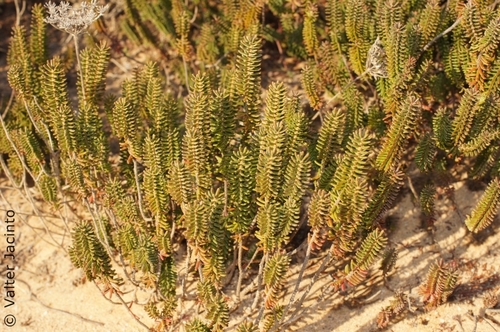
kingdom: Plantae
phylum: Tracheophyta
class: Magnoliopsida
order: Ericales
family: Ericaceae
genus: Corema
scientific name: Corema album
